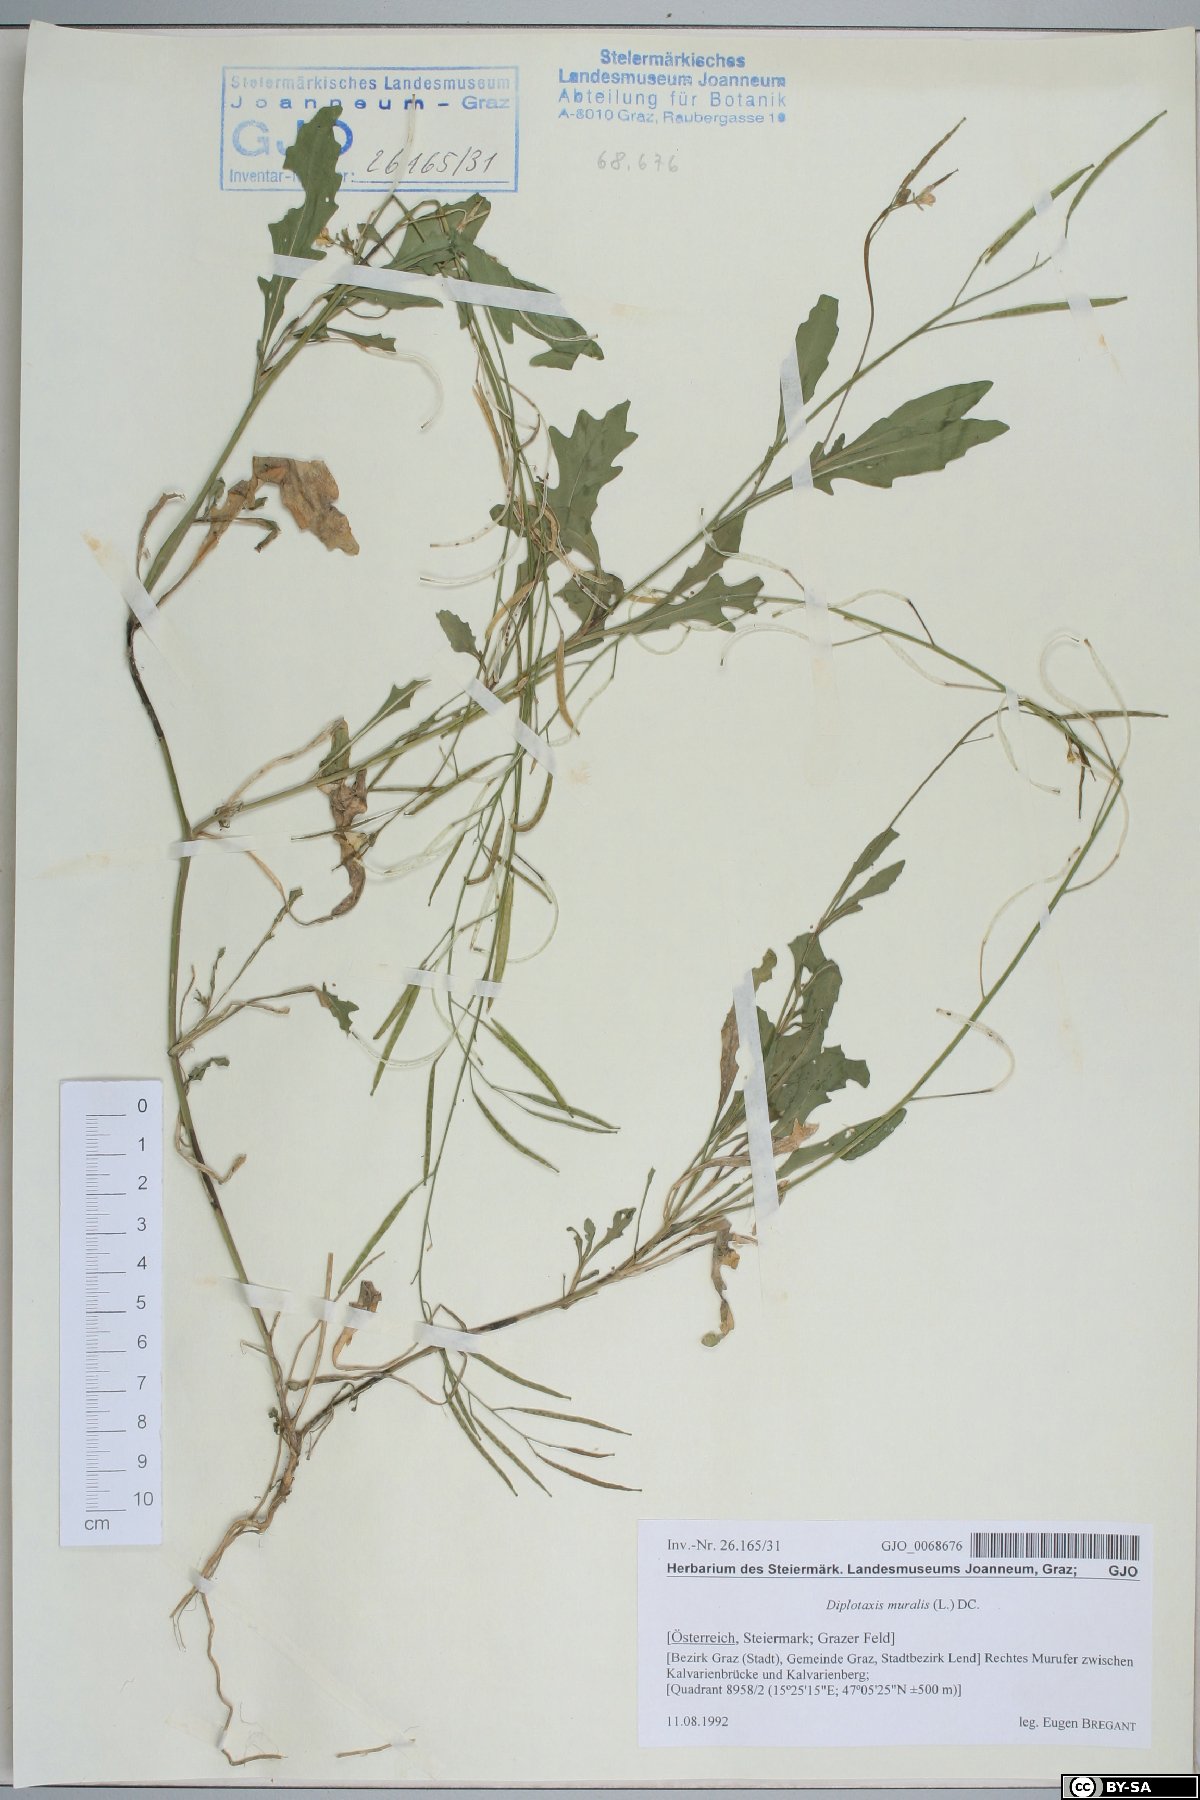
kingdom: Plantae
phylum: Tracheophyta
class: Magnoliopsida
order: Brassicales
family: Brassicaceae
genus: Diplotaxis
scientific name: Diplotaxis muralis
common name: Annual wall-rocket
